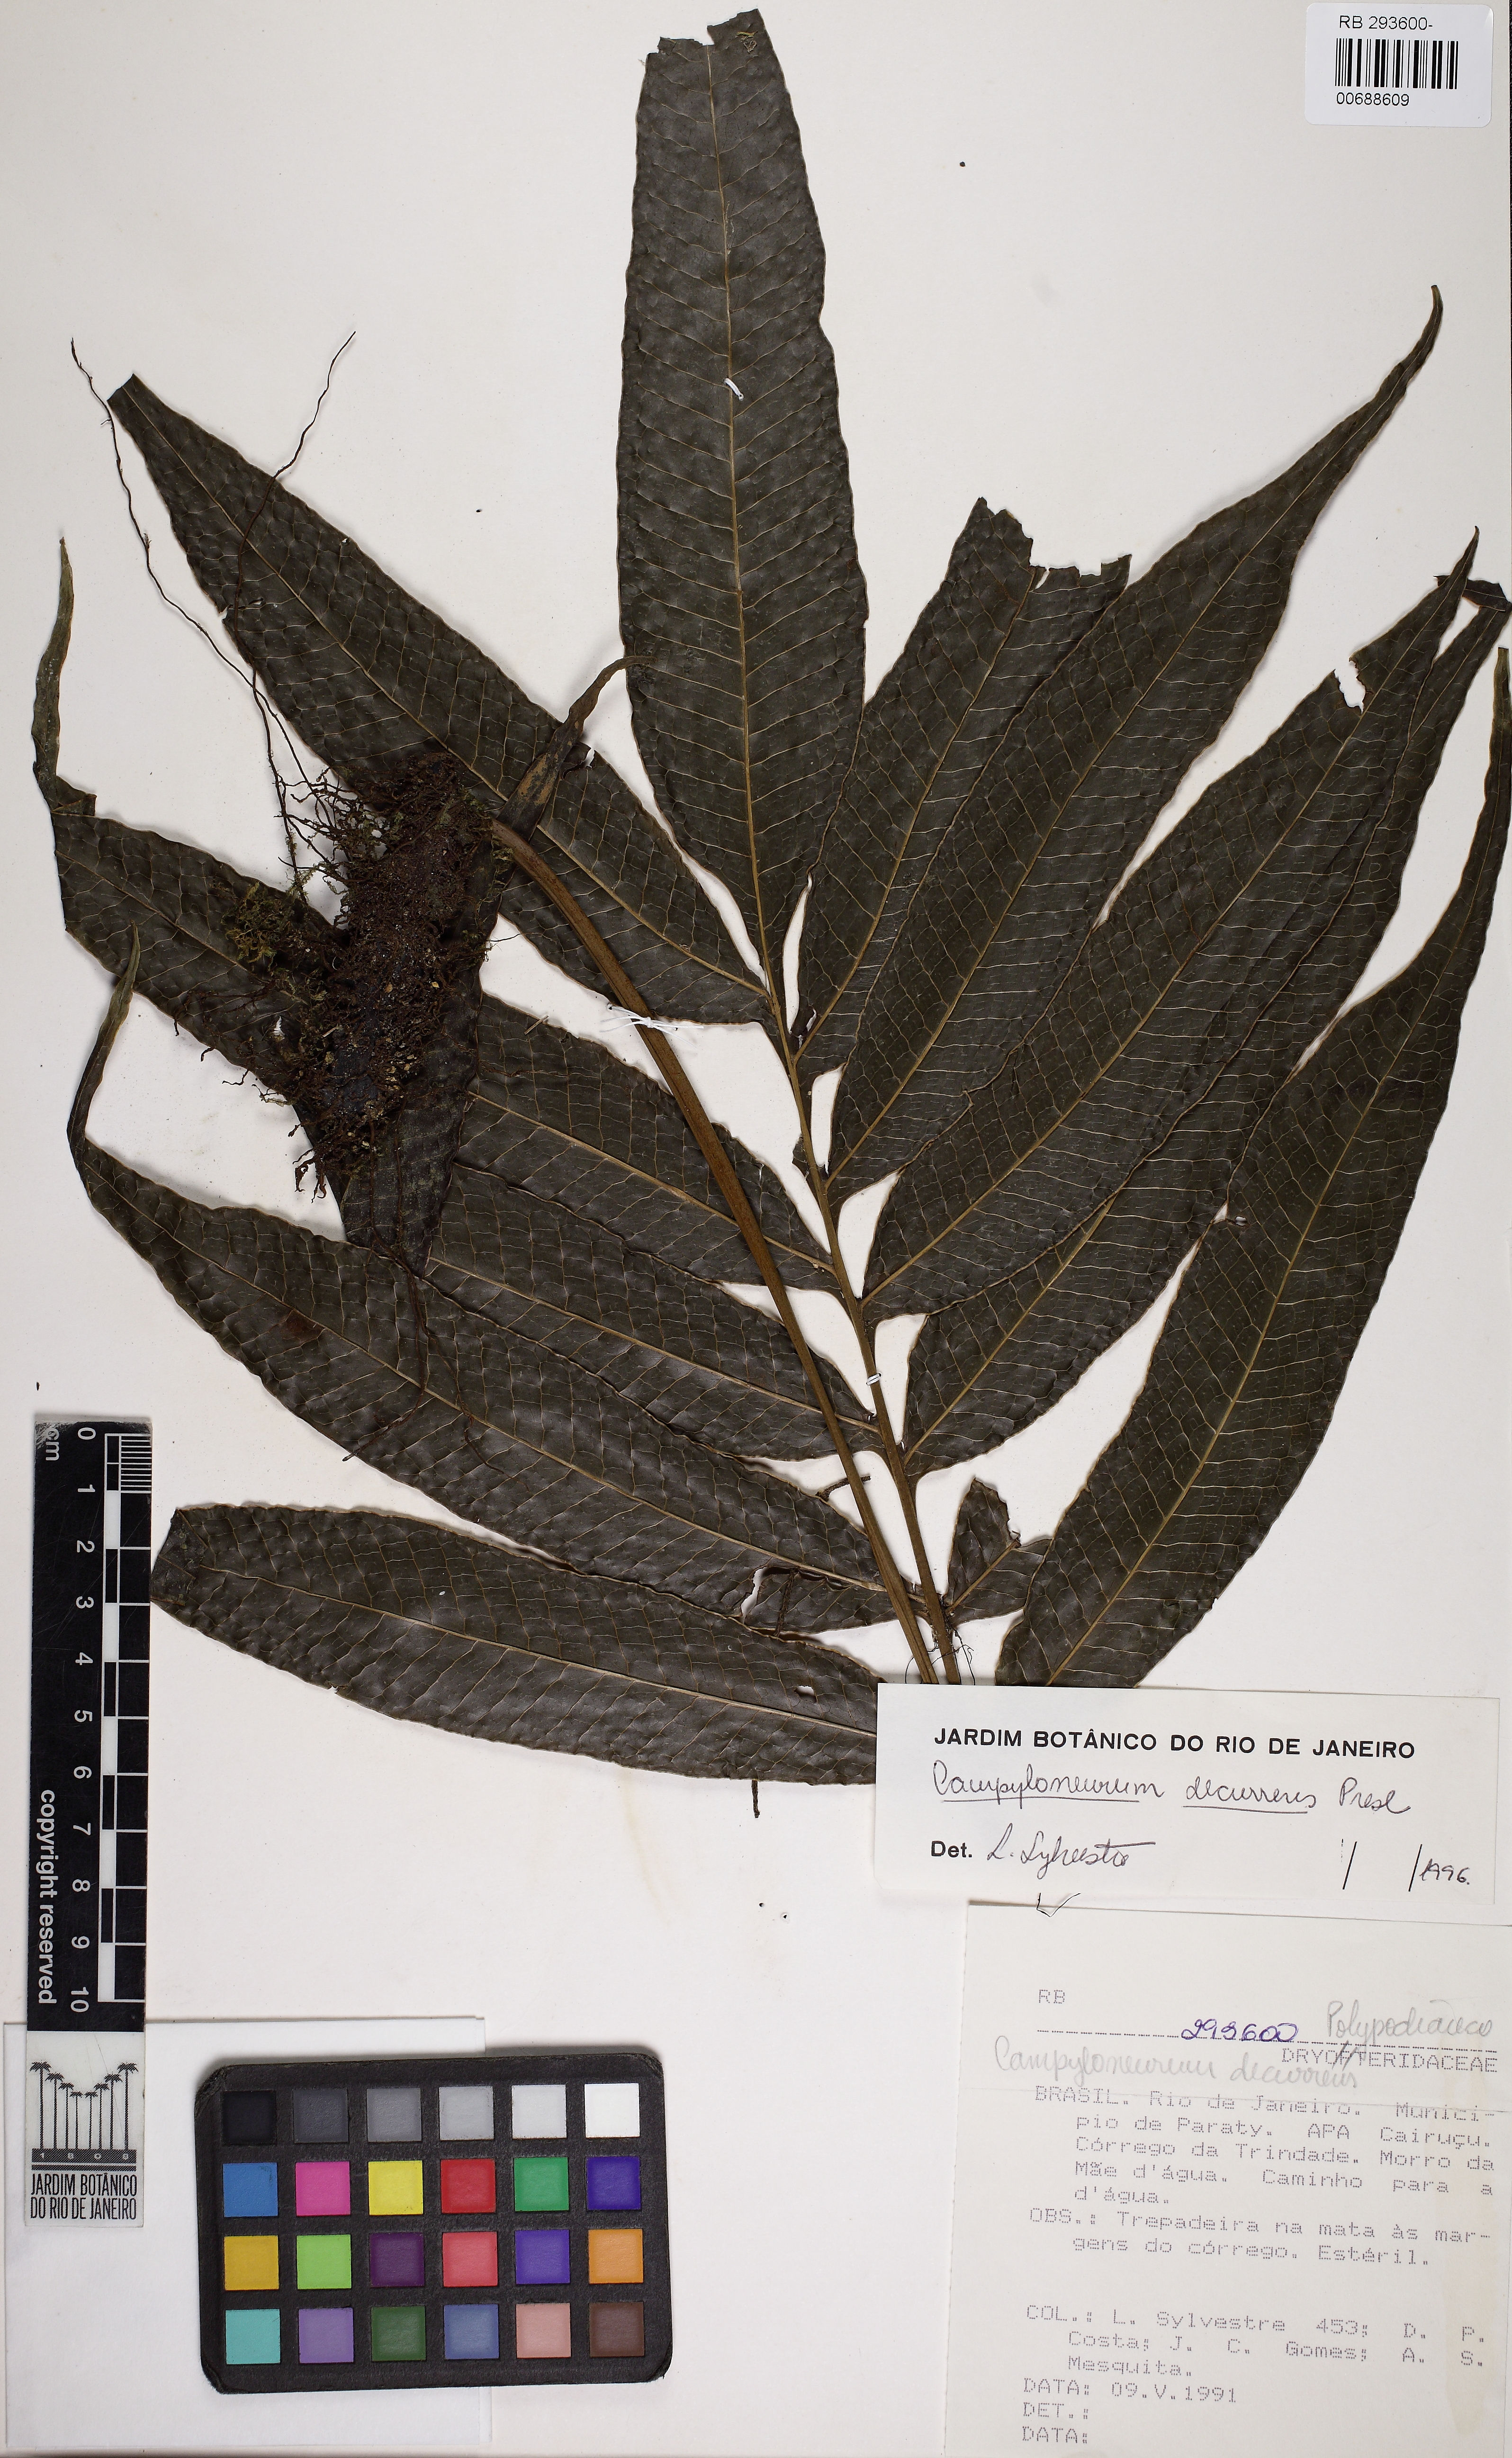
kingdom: Plantae
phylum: Tracheophyta
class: Polypodiopsida
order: Polypodiales
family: Polypodiaceae
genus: Campyloneurum
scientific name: Campyloneurum decurrens
